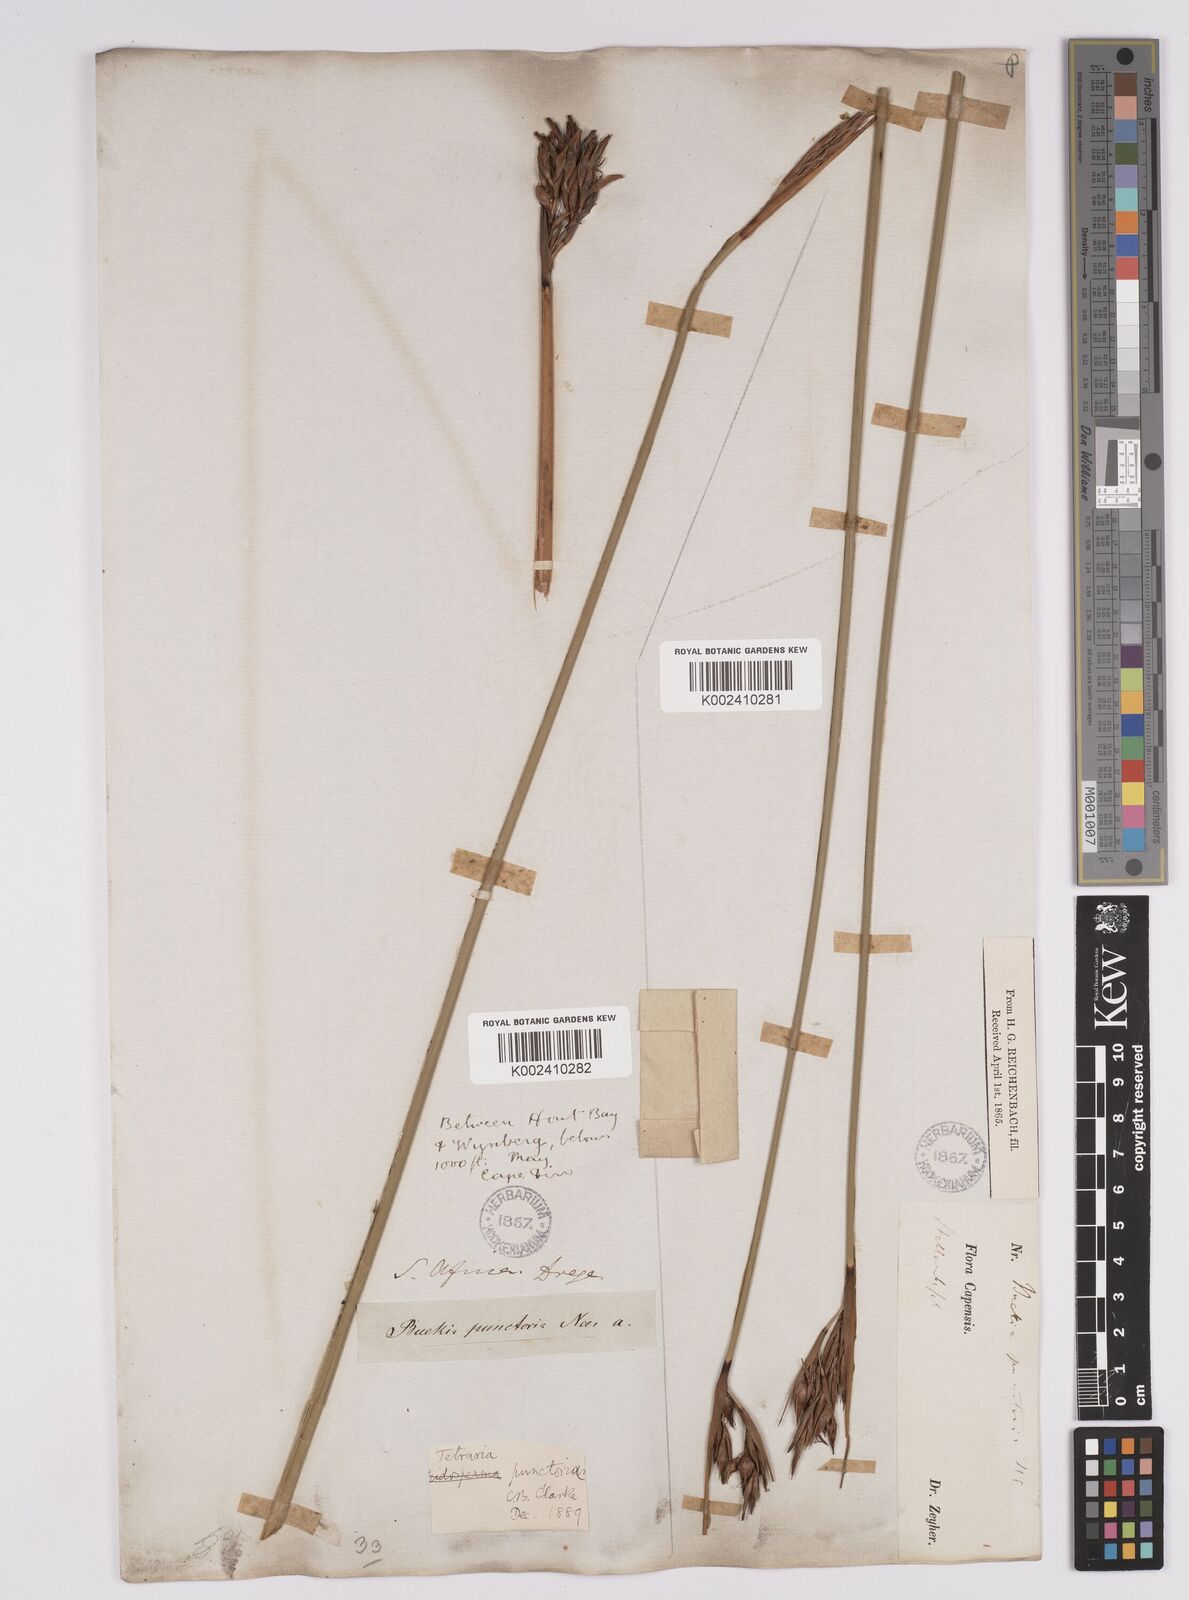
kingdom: Plantae
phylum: Tracheophyta
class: Liliopsida
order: Poales
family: Cyperaceae
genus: Neesenbeckia
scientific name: Neesenbeckia punctoria
